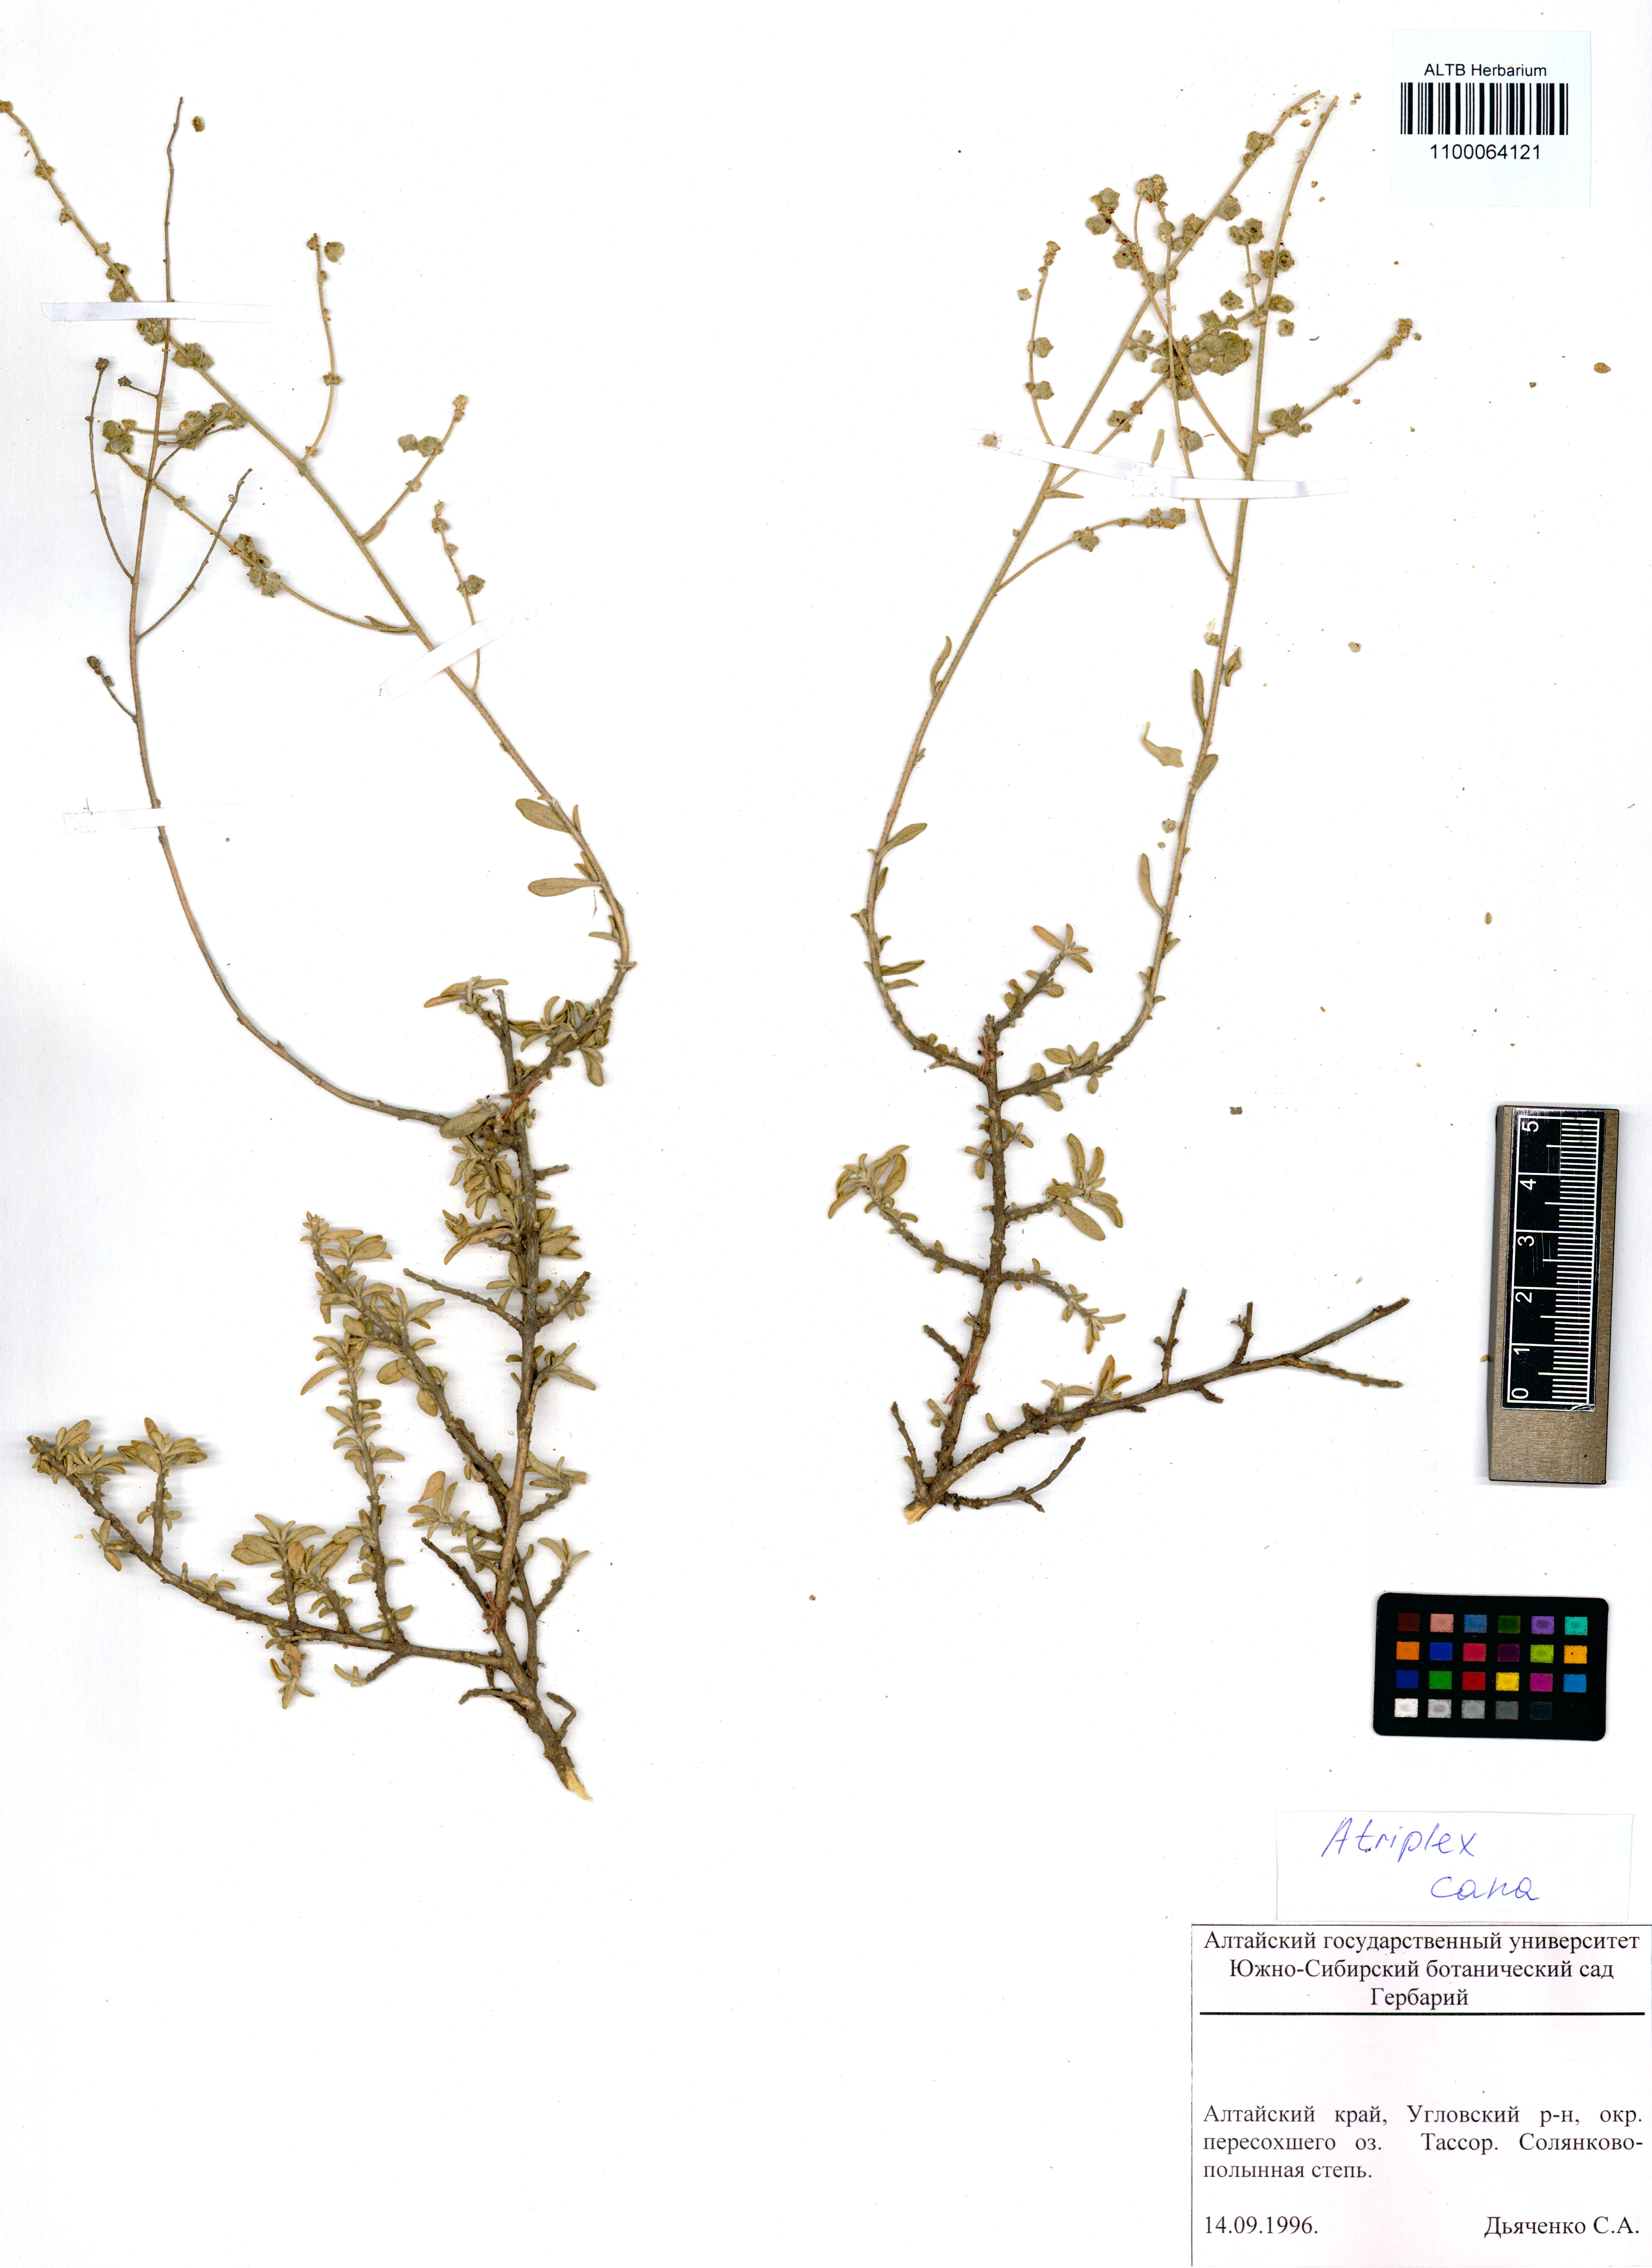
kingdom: Plantae
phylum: Tracheophyta
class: Magnoliopsida
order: Caryophyllales
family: Amaranthaceae
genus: Atriplex
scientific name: Atriplex cana
